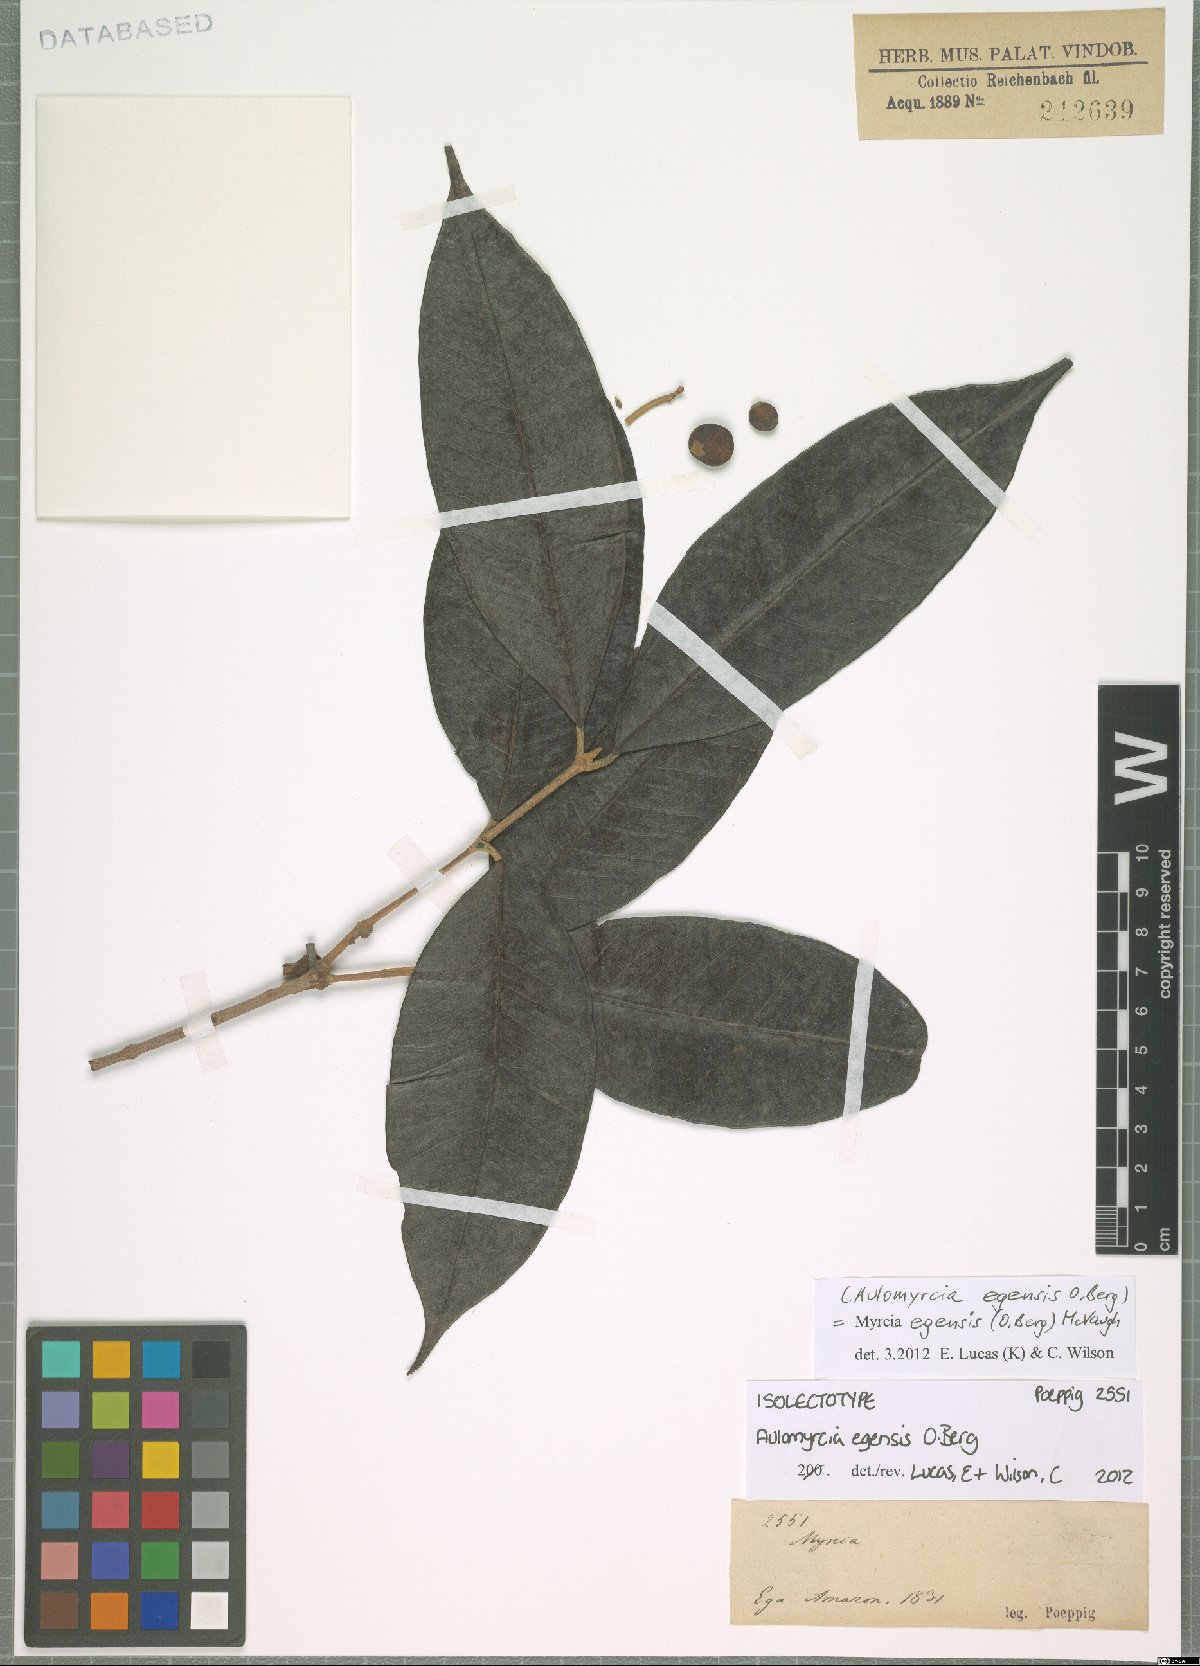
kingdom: Plantae
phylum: Tracheophyta
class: Magnoliopsida
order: Myrtales
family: Myrtaceae
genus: Myrcia
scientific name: Myrcia egensis
